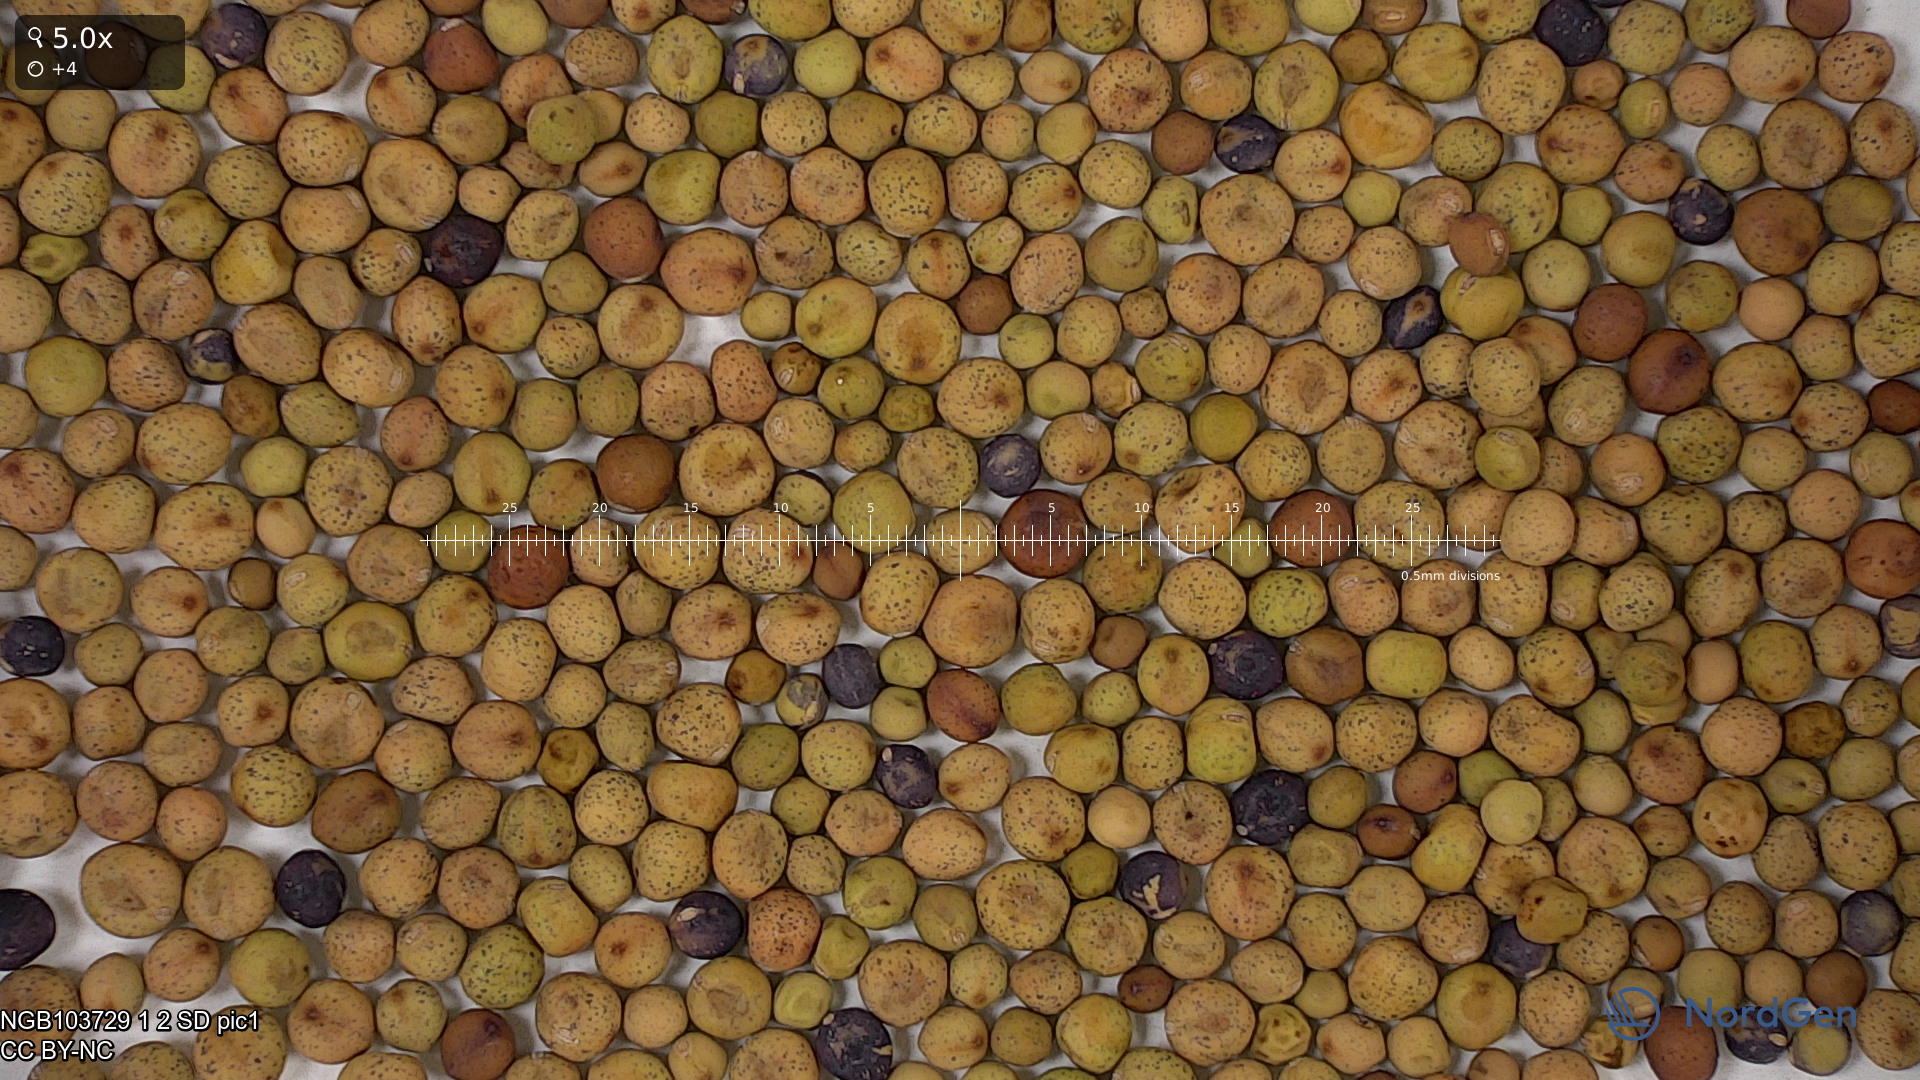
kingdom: Plantae
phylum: Tracheophyta
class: Magnoliopsida
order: Fabales
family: Fabaceae
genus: Lathyrus
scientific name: Lathyrus oleraceus
